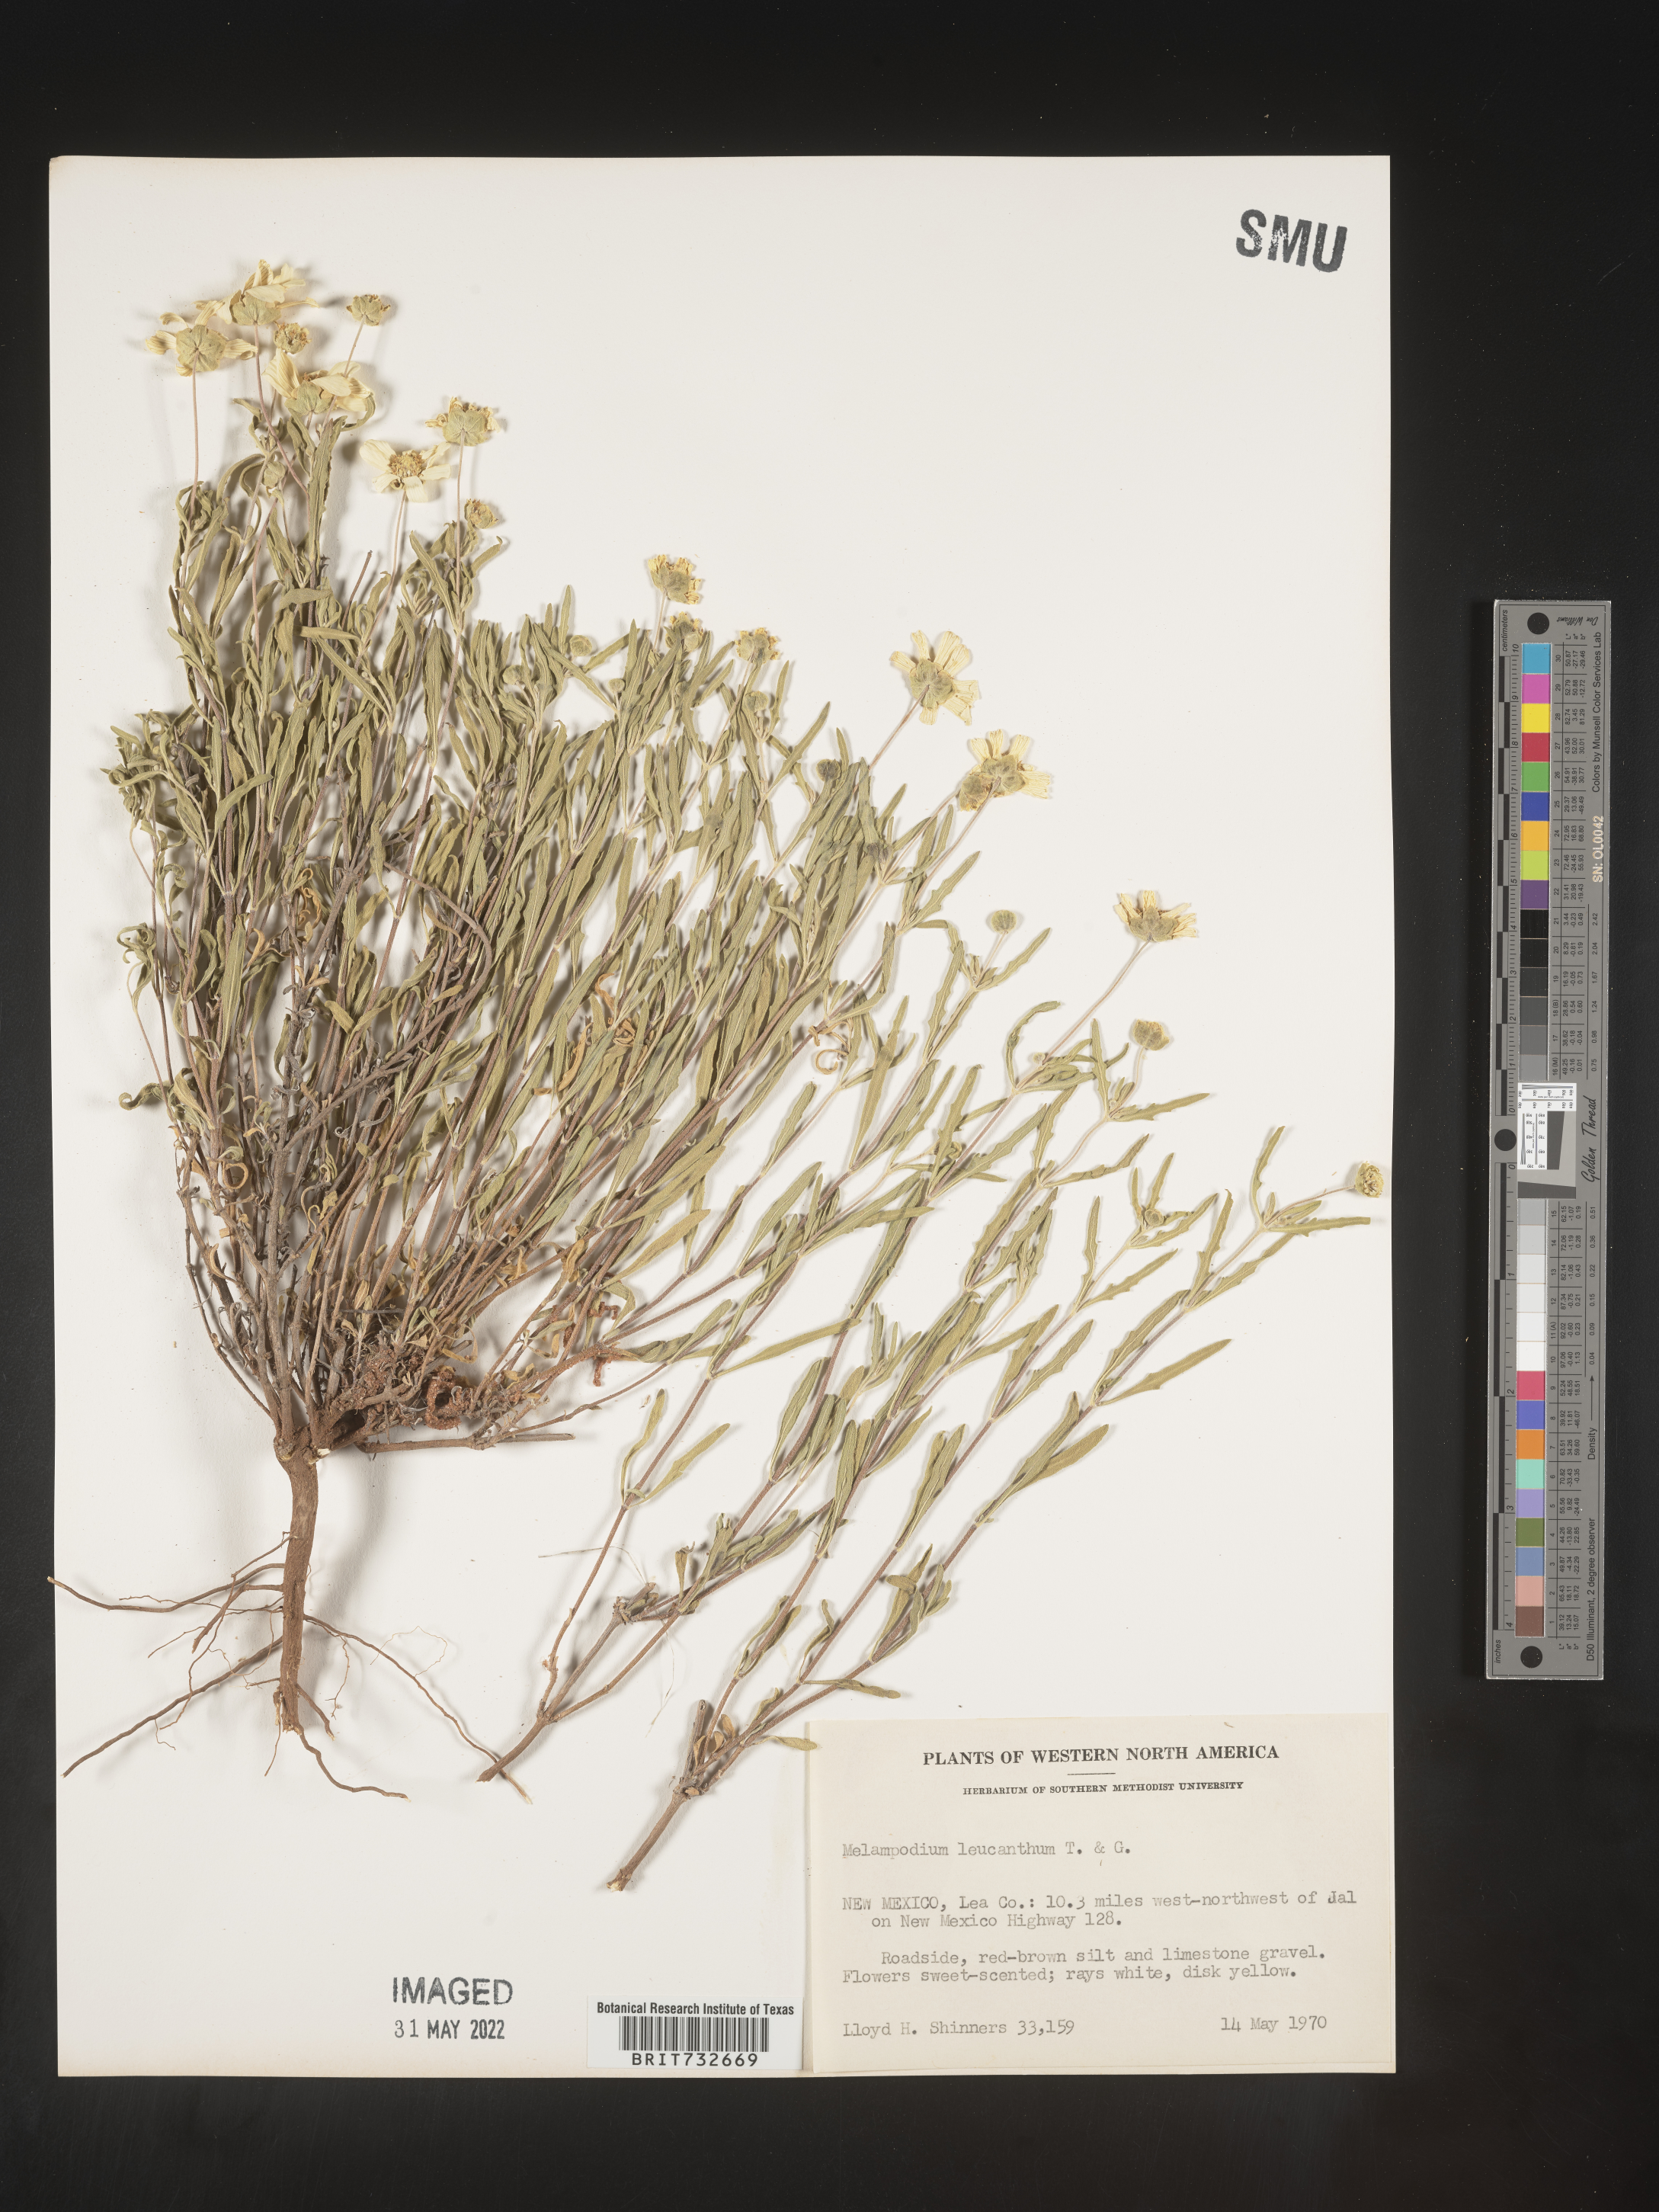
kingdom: Plantae
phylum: Tracheophyta
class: Magnoliopsida
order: Asterales
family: Asteraceae
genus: Melampodium
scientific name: Melampodium leucanthum
